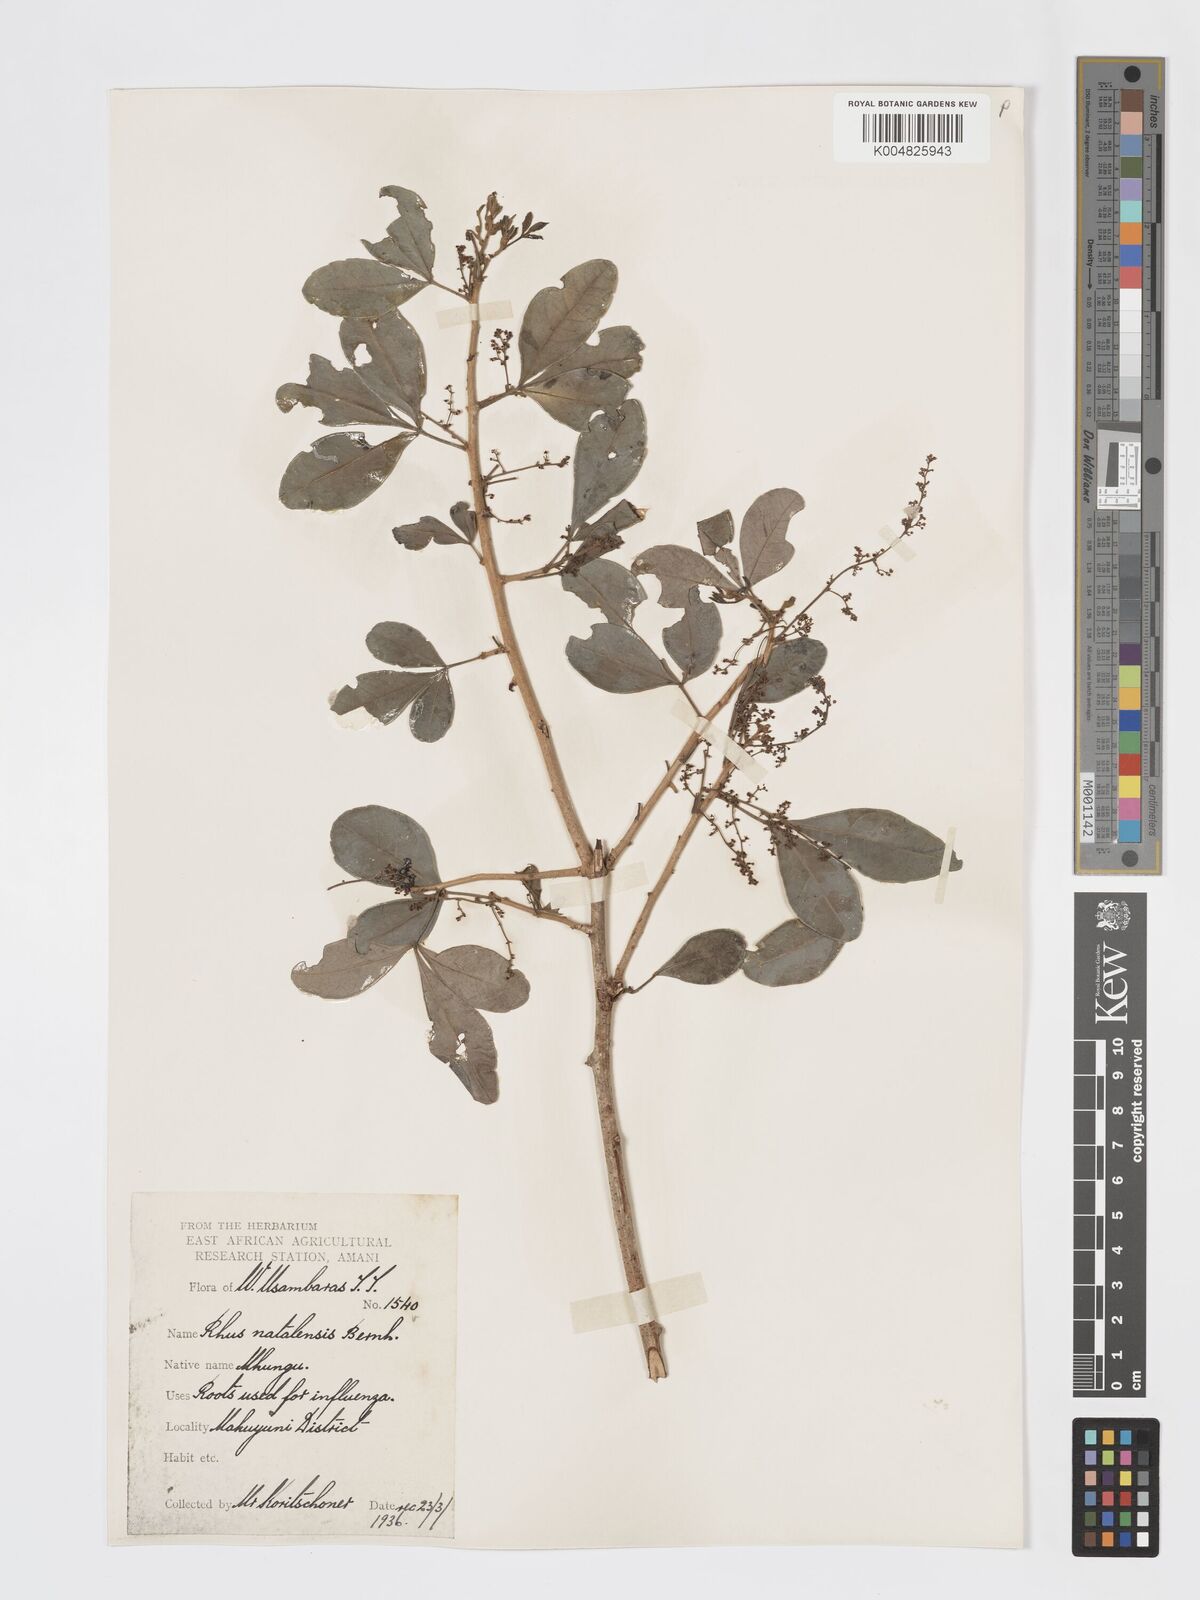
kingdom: Plantae
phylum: Tracheophyta
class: Magnoliopsida
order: Sapindales
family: Anacardiaceae
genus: Searsia
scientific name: Searsia natalensis
